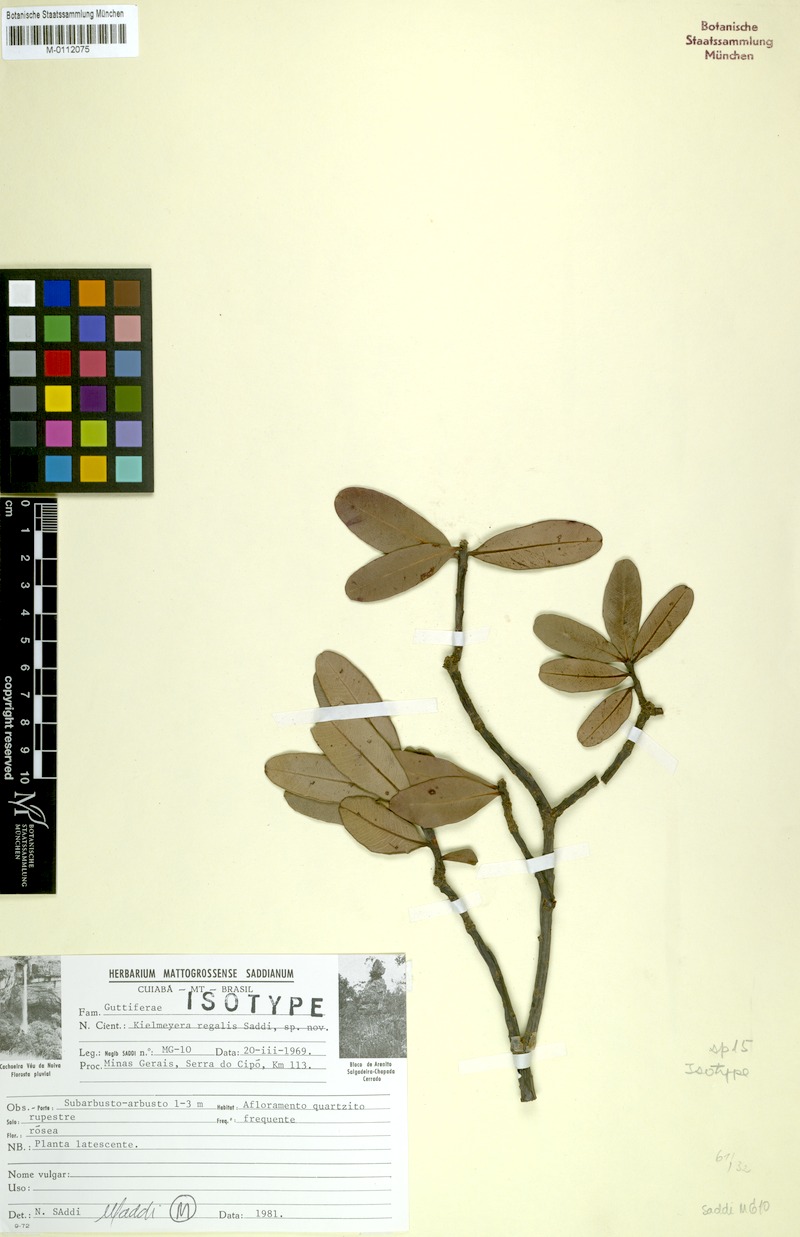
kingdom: Plantae
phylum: Tracheophyta
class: Magnoliopsida
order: Malpighiales
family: Calophyllaceae
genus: Kielmeyera
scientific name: Kielmeyera regalis
